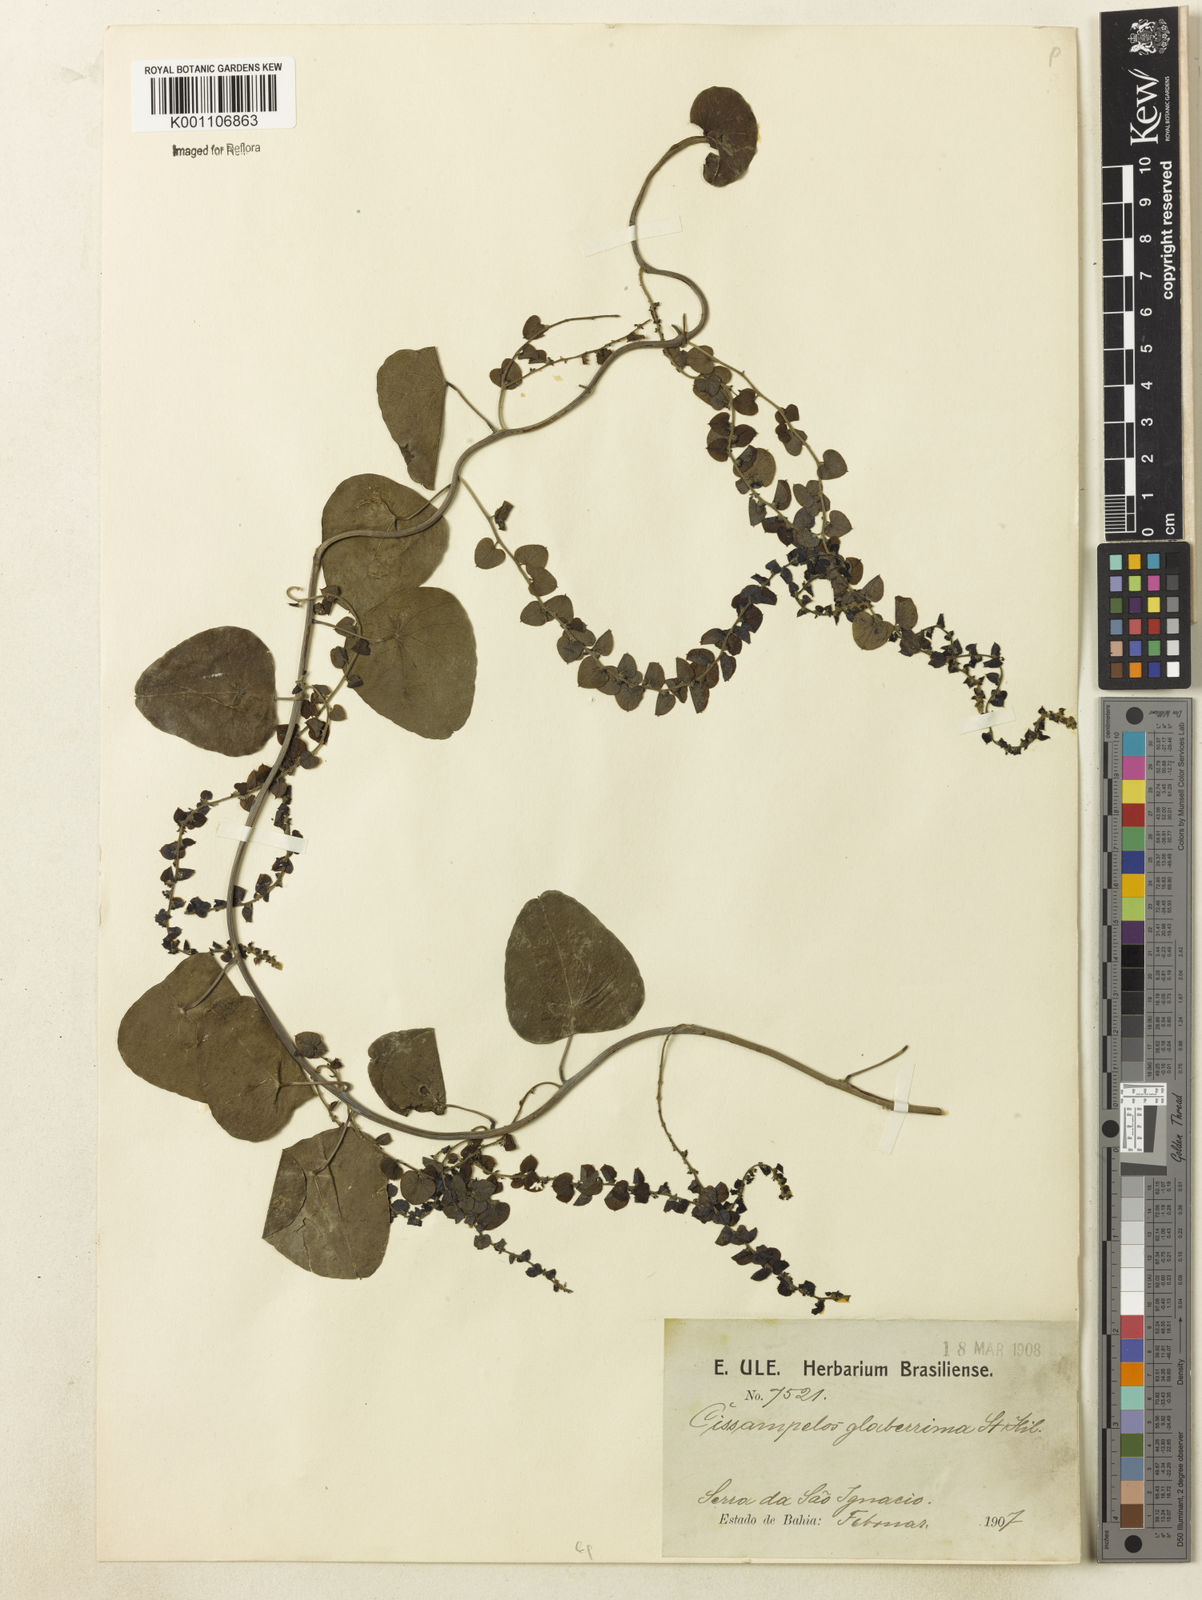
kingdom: Plantae
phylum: Tracheophyta
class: Magnoliopsida
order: Ranunculales
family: Menispermaceae
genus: Cissampelos
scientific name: Cissampelos glaberrima
